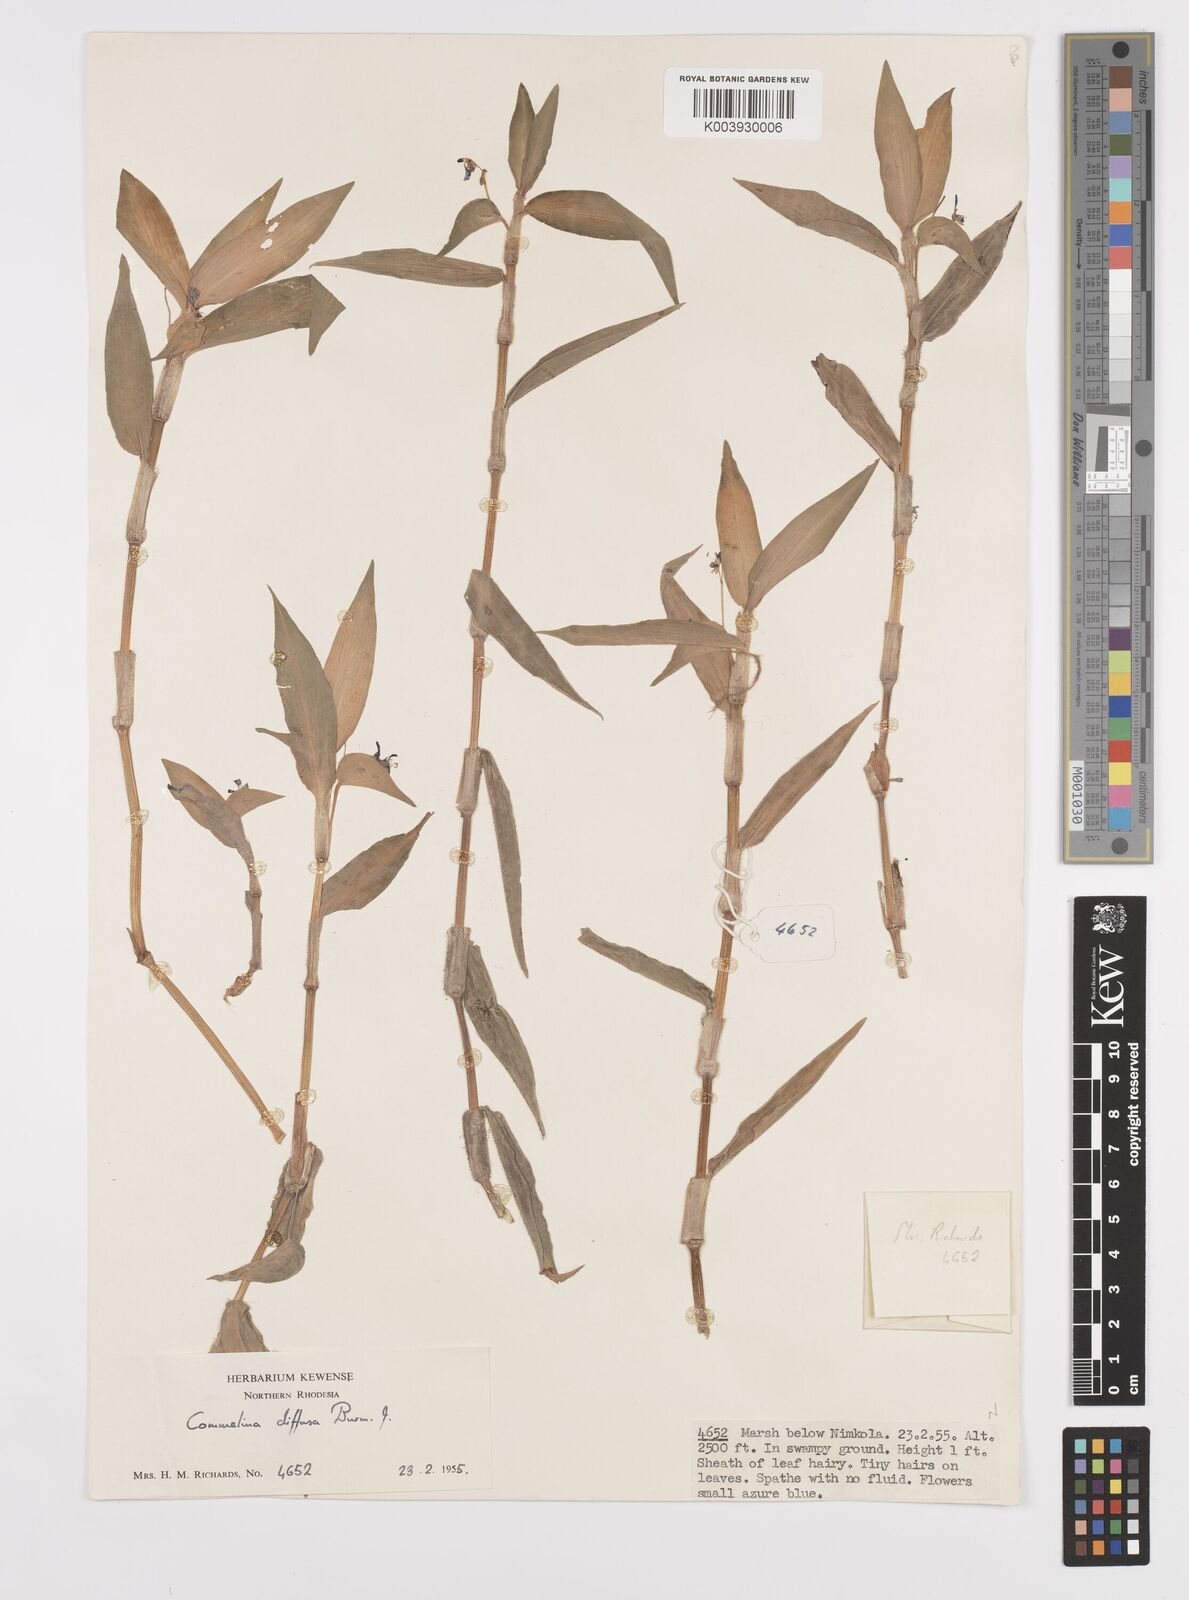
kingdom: Plantae
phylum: Tracheophyta
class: Liliopsida
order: Commelinales
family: Commelinaceae
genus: Commelina
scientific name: Commelina diffusa
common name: Climbing dayflower
